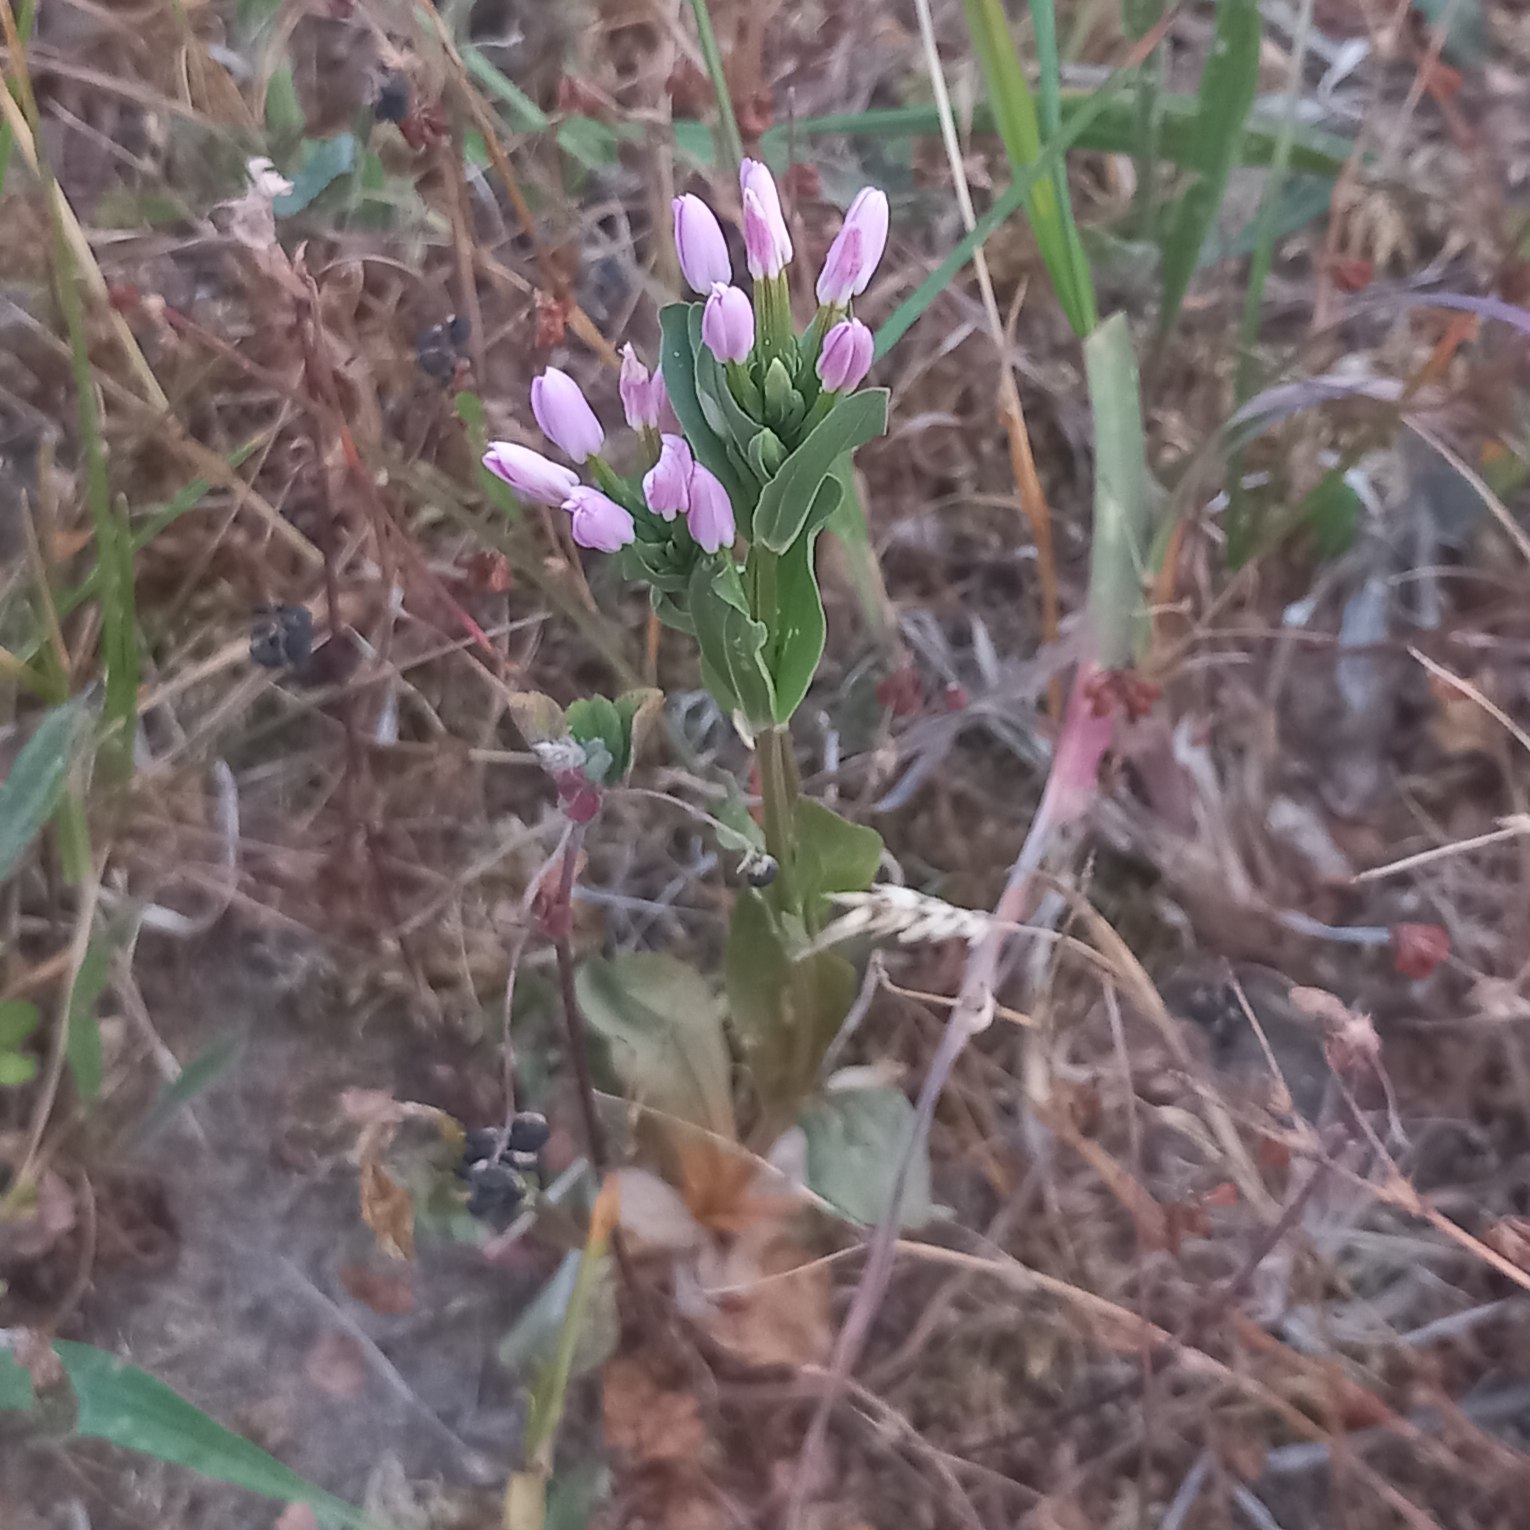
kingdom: Plantae
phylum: Tracheophyta
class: Magnoliopsida
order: Gentianales
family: Gentianaceae
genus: Centaurium
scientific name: Centaurium erythraea
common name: Mark-tusindgylden
